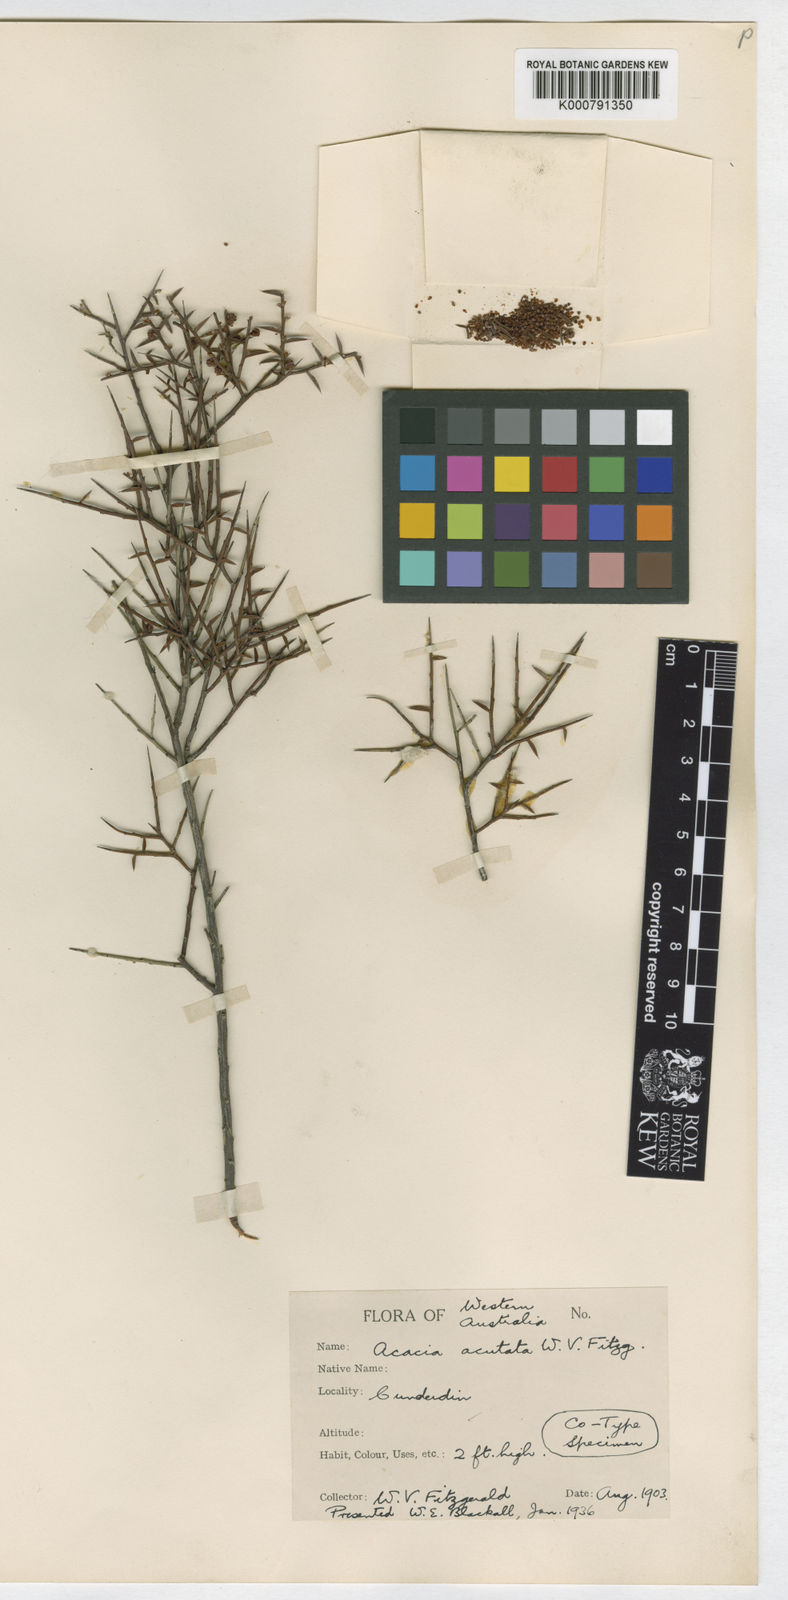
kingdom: Plantae
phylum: Tracheophyta
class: Magnoliopsida
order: Fabales
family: Fabaceae
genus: Acacia
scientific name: Acacia acutata
